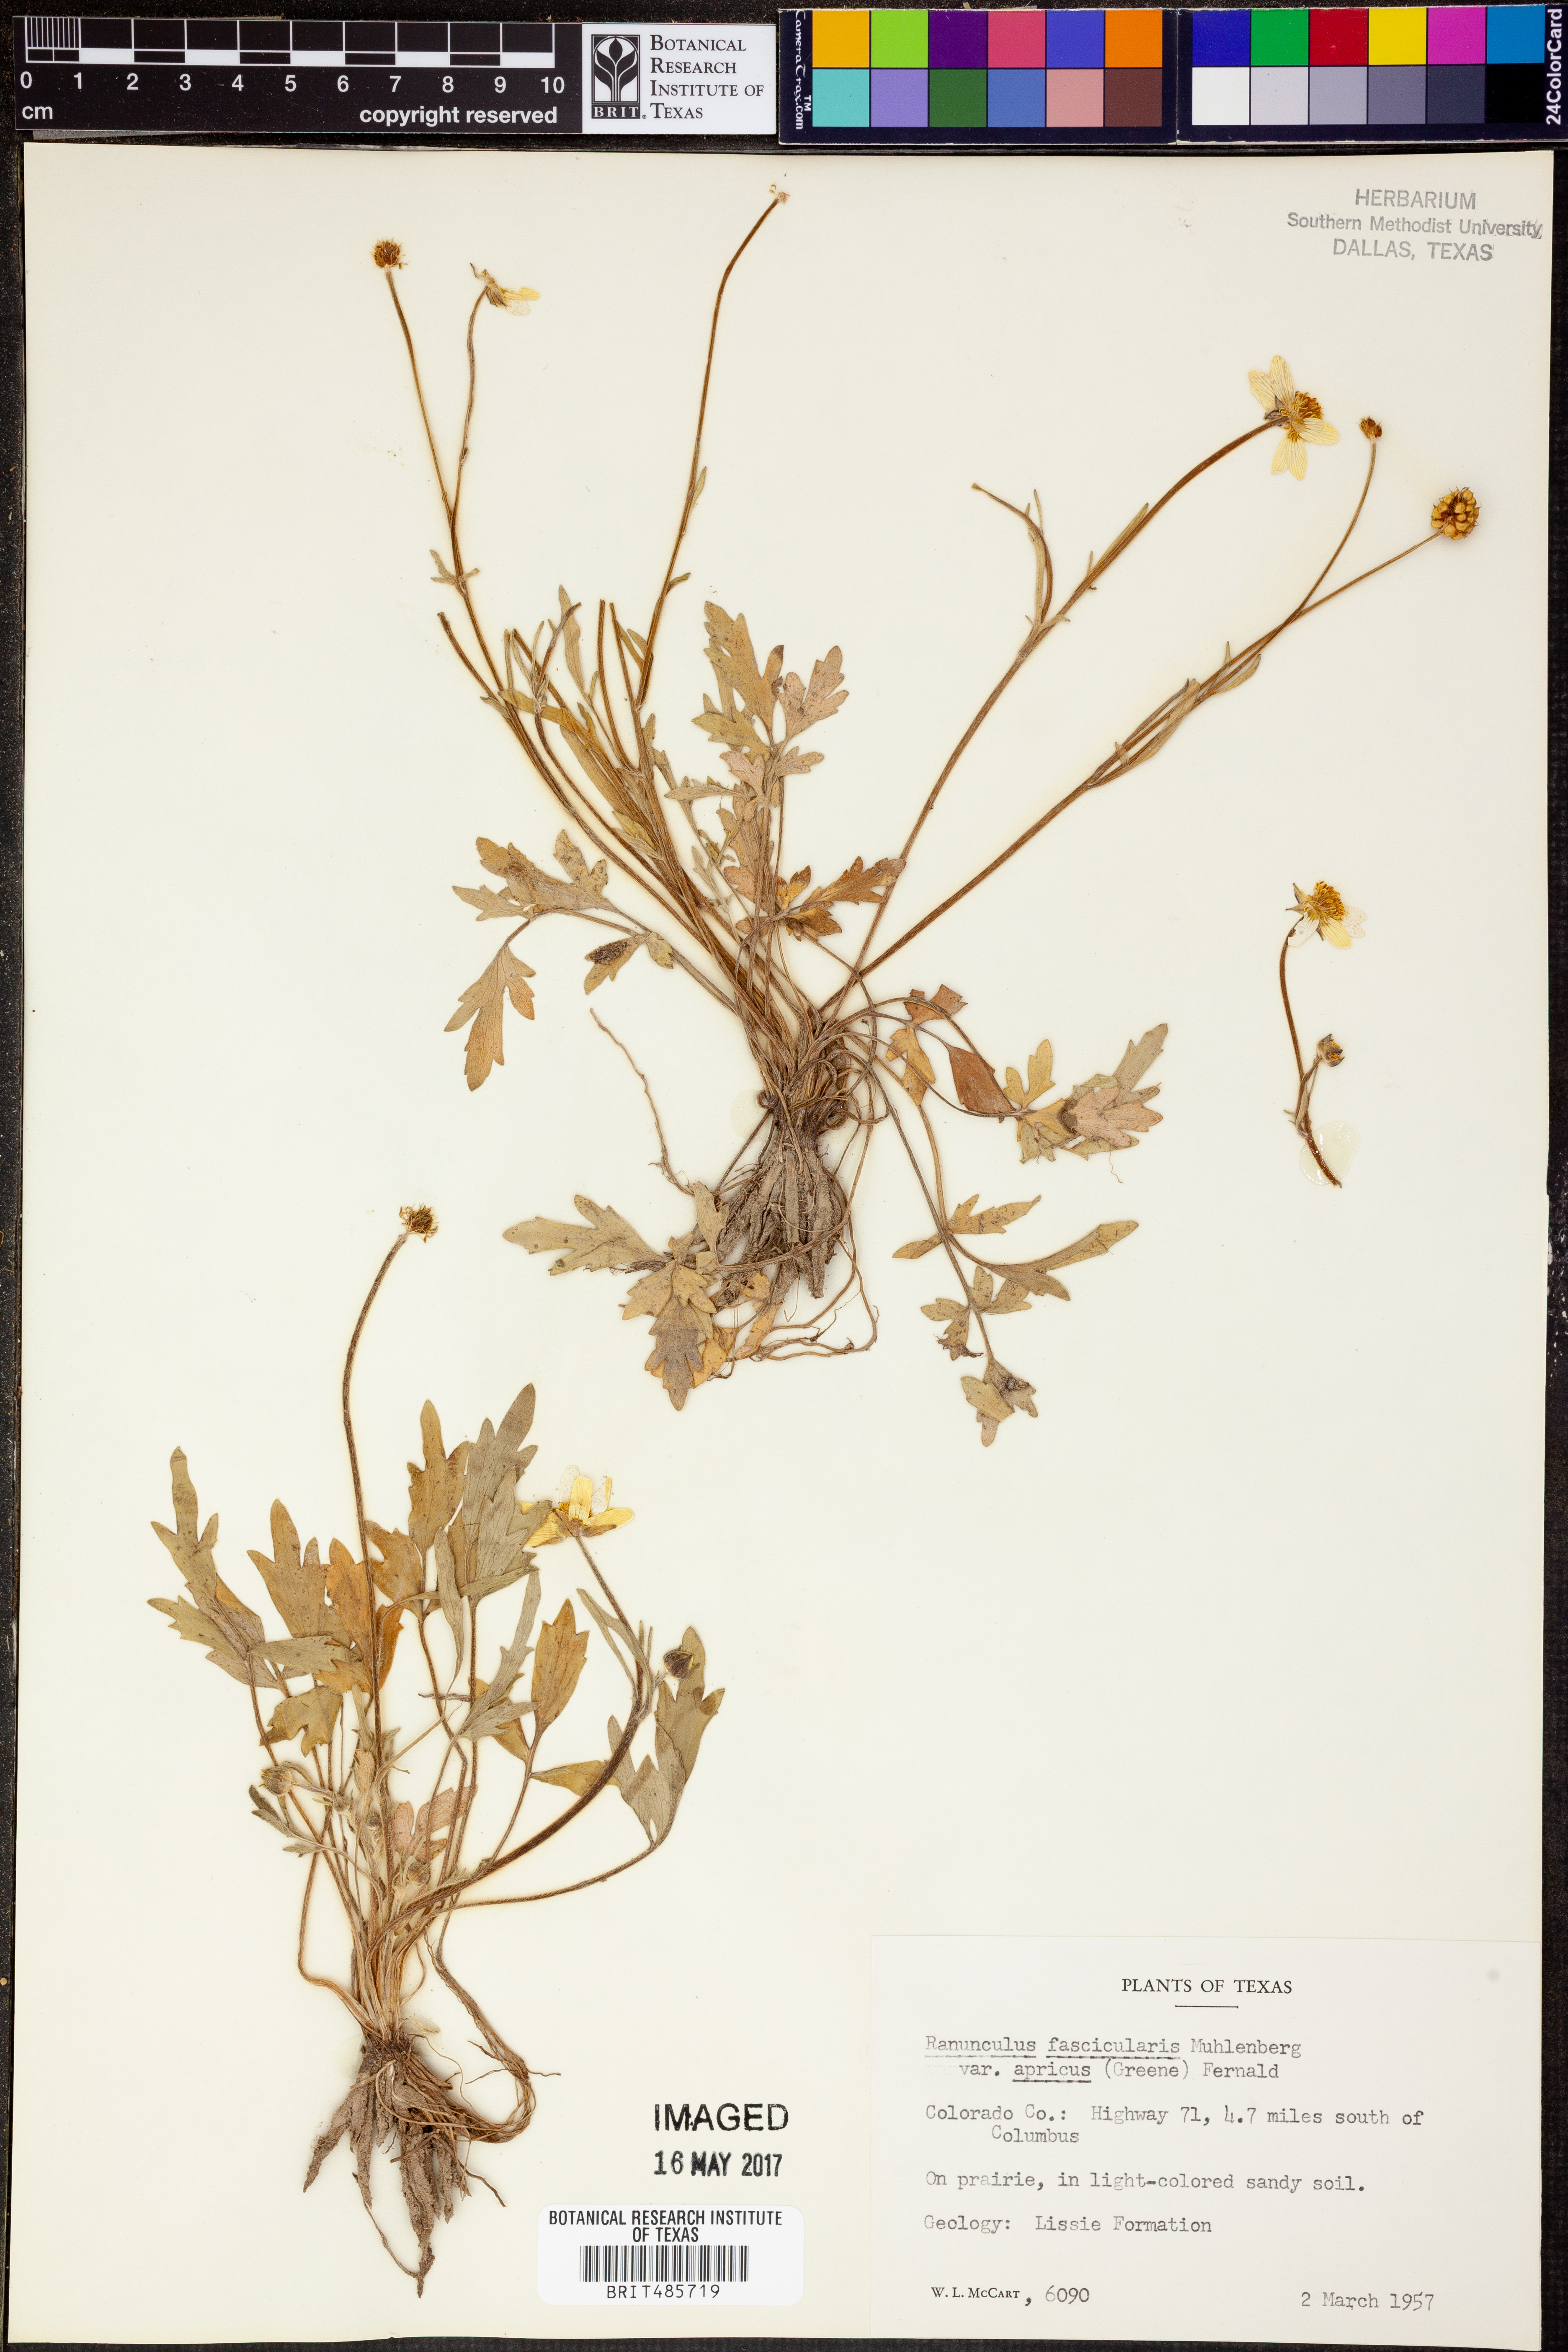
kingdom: Plantae
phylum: Tracheophyta
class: Magnoliopsida
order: Ranunculales
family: Ranunculaceae
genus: Ranunculus
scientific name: Ranunculus fascicularis
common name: Early buttercup
